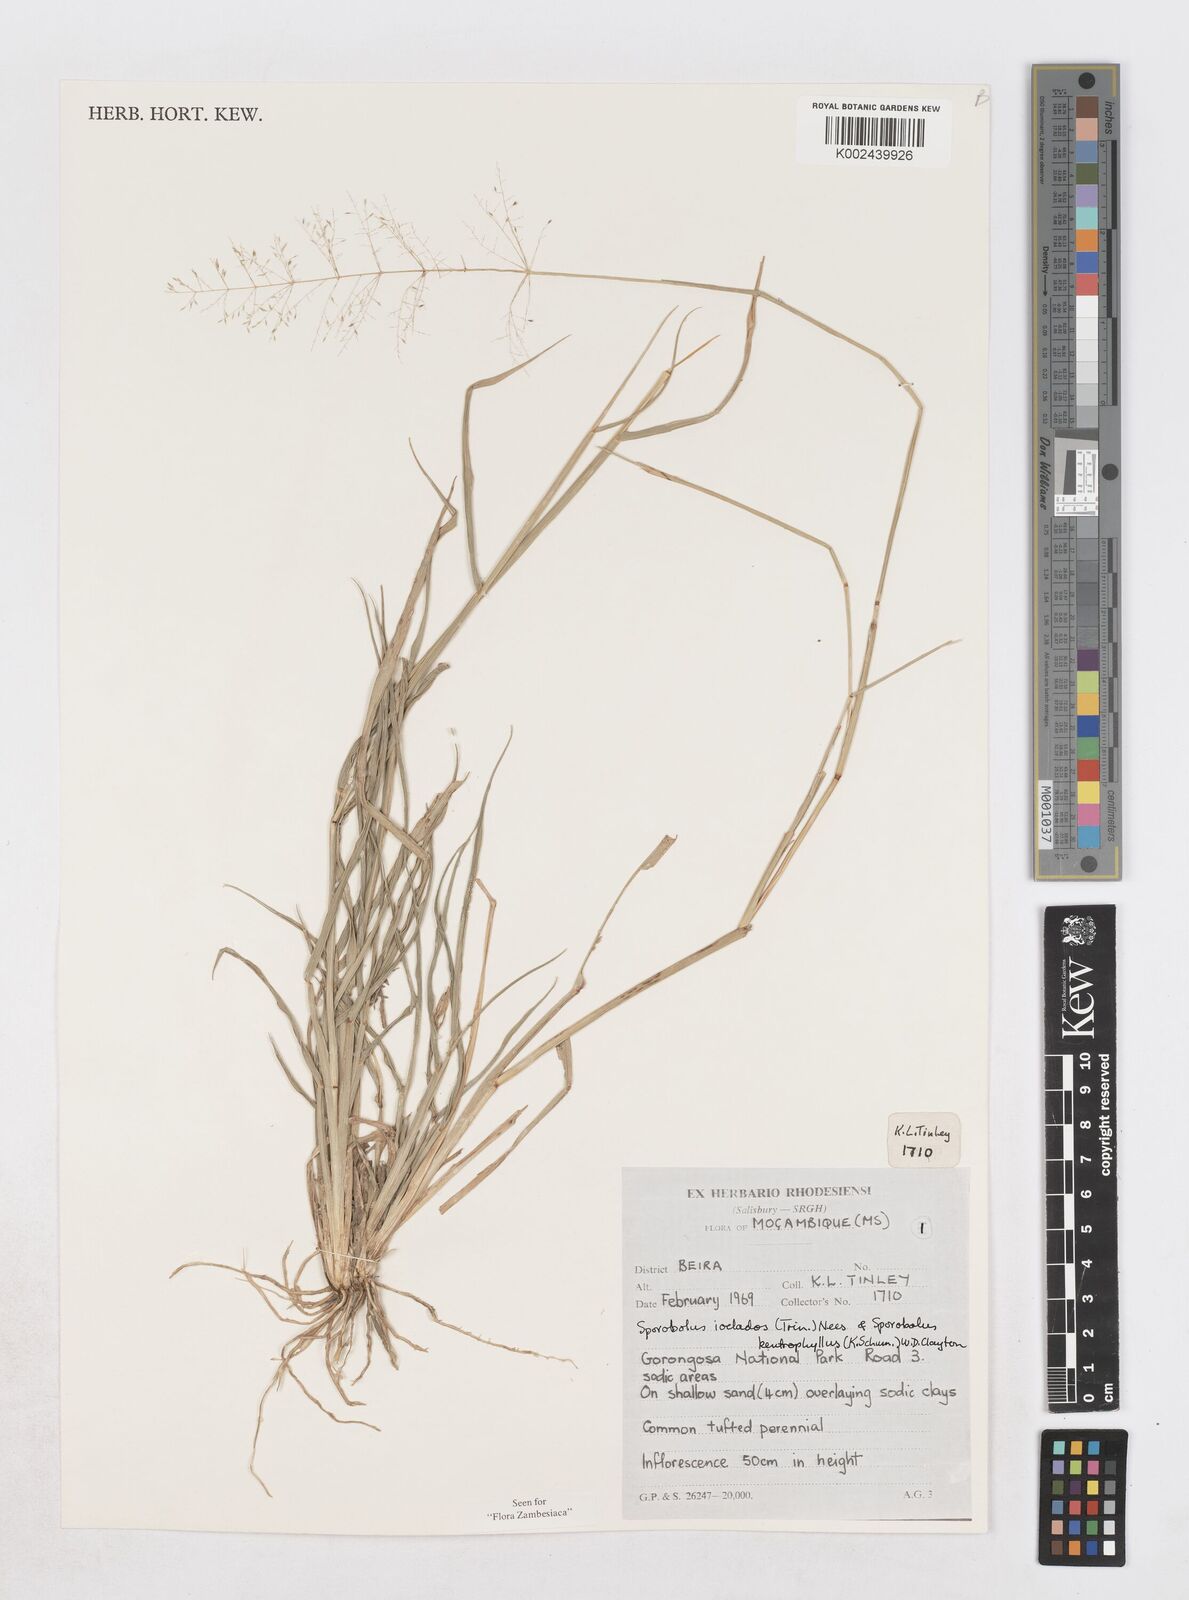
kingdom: Plantae
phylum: Tracheophyta
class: Liliopsida
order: Poales
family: Poaceae
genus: Sporobolus
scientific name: Sporobolus ioclados
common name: Pan dropseed
